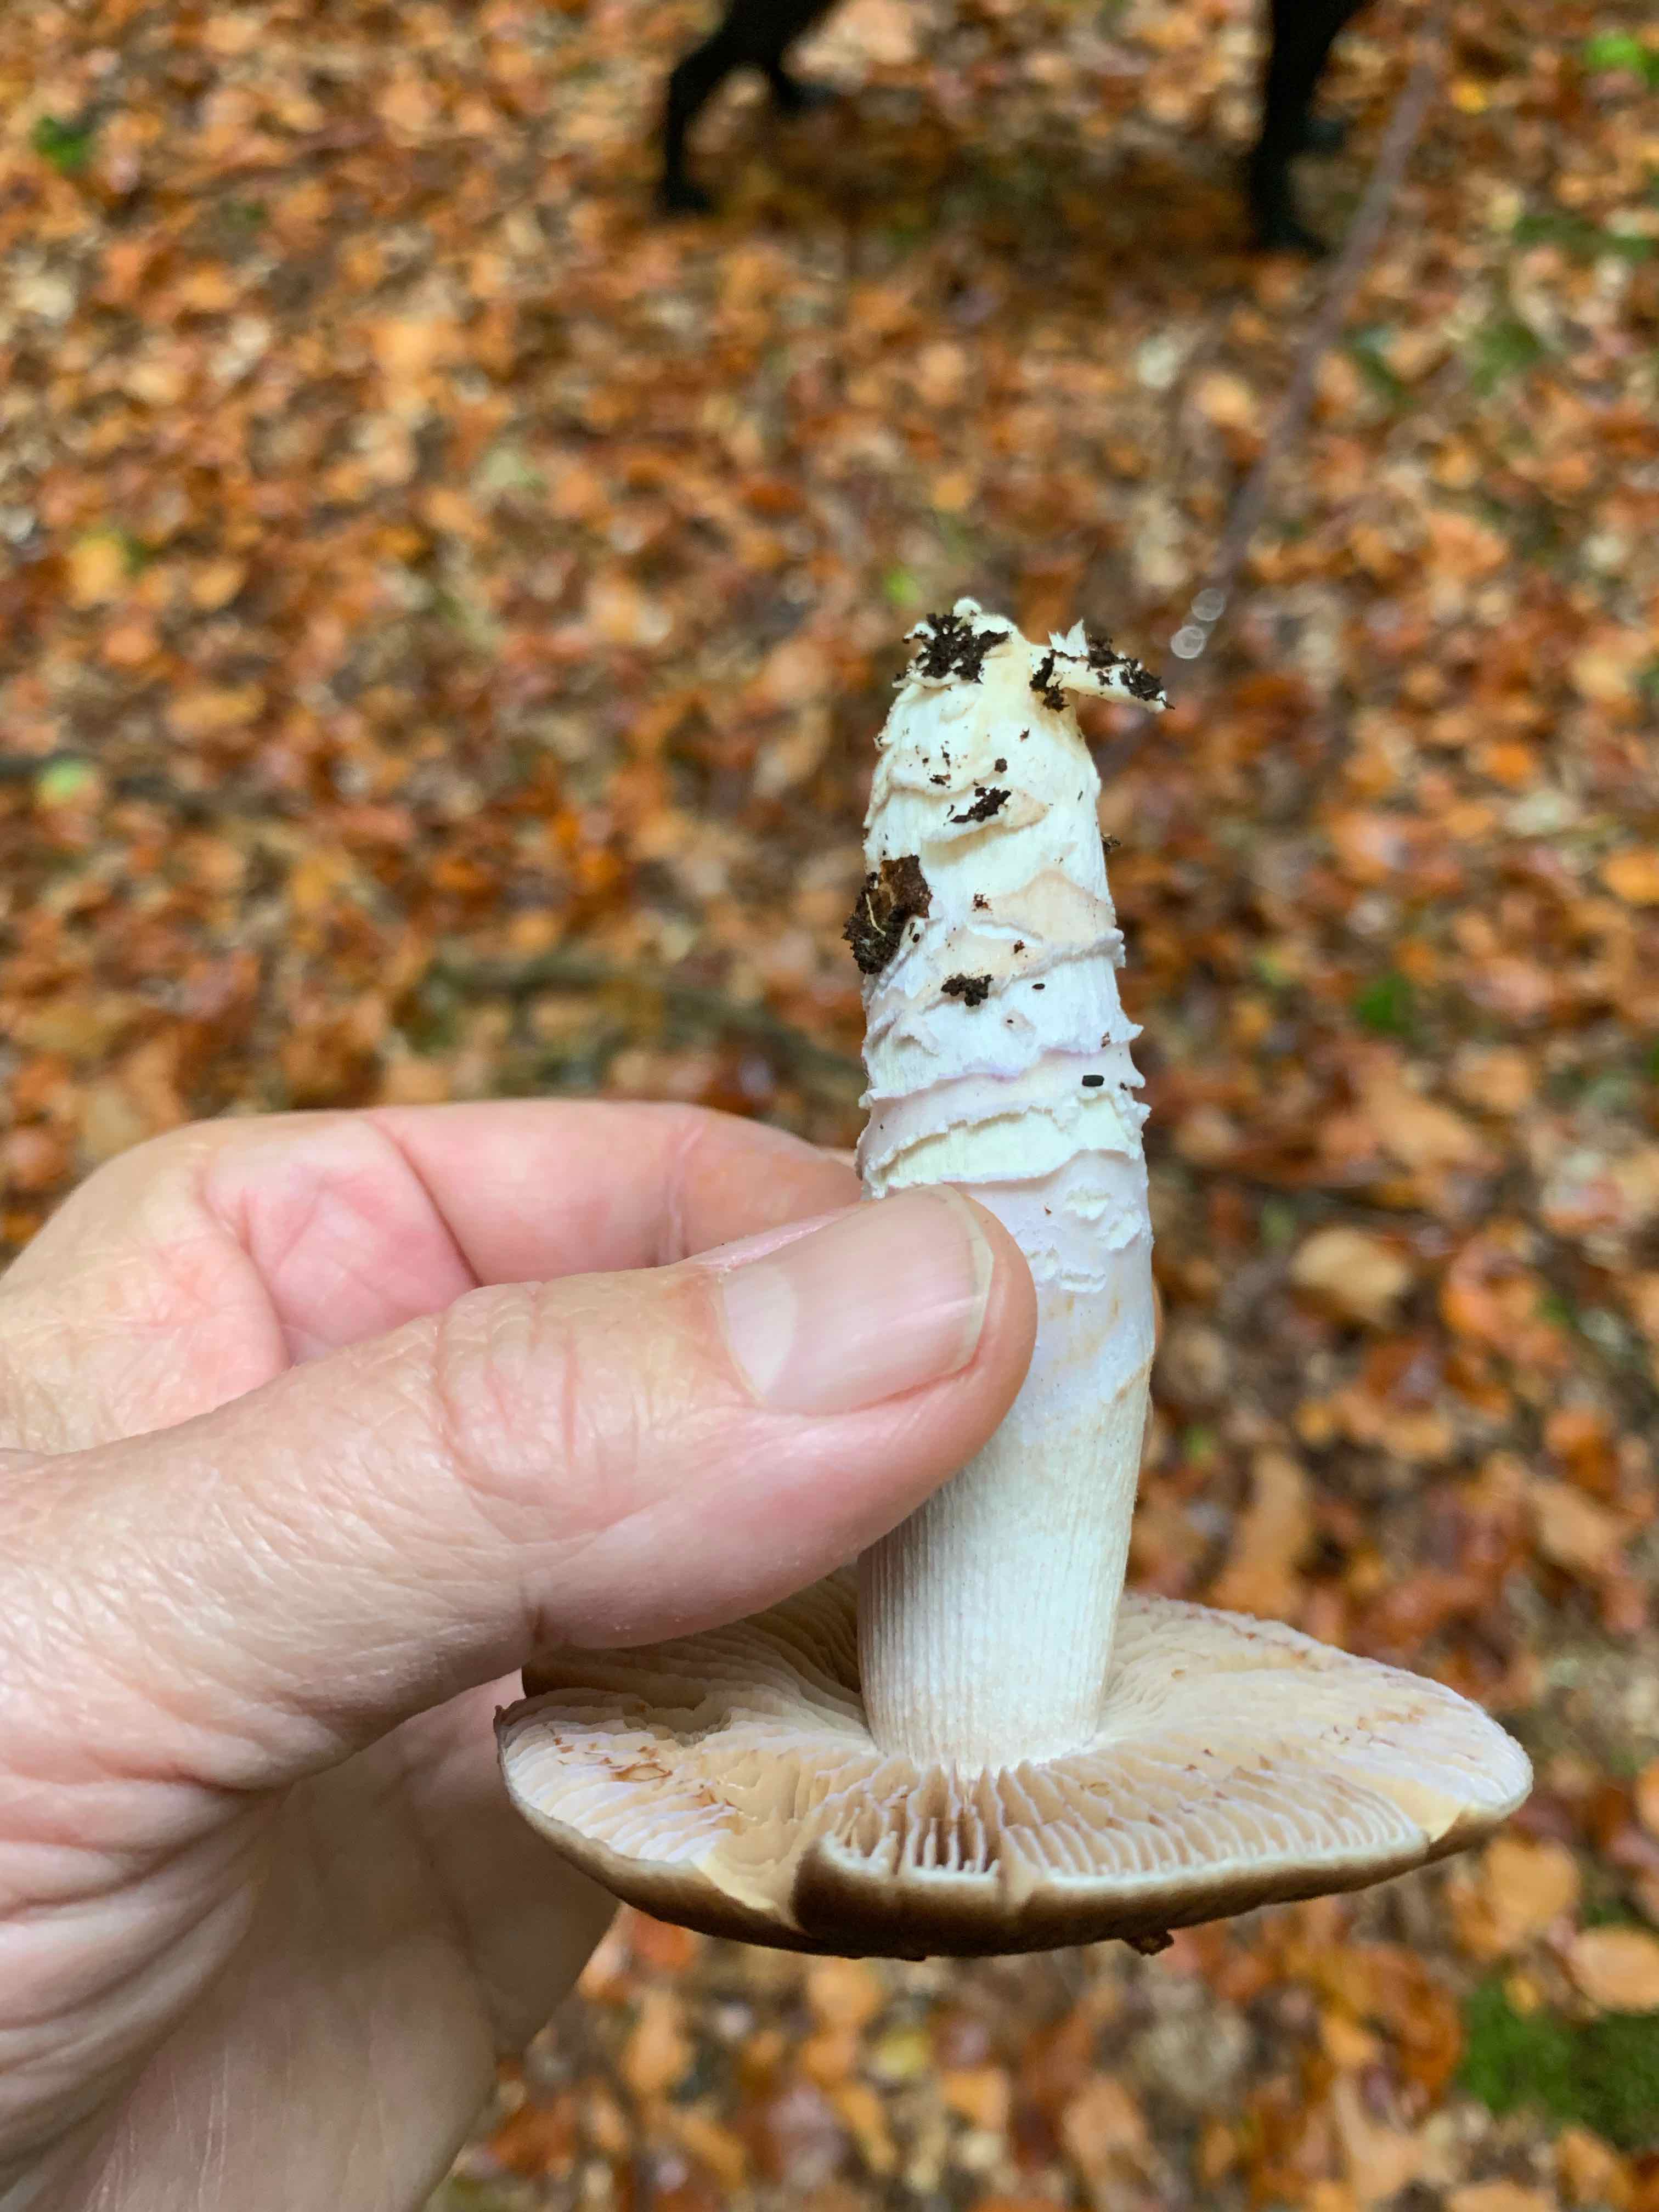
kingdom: Fungi
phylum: Basidiomycota
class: Agaricomycetes
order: Agaricales
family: Cortinariaceae
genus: Cortinarius
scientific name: Cortinarius elatior
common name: høj slørhat
